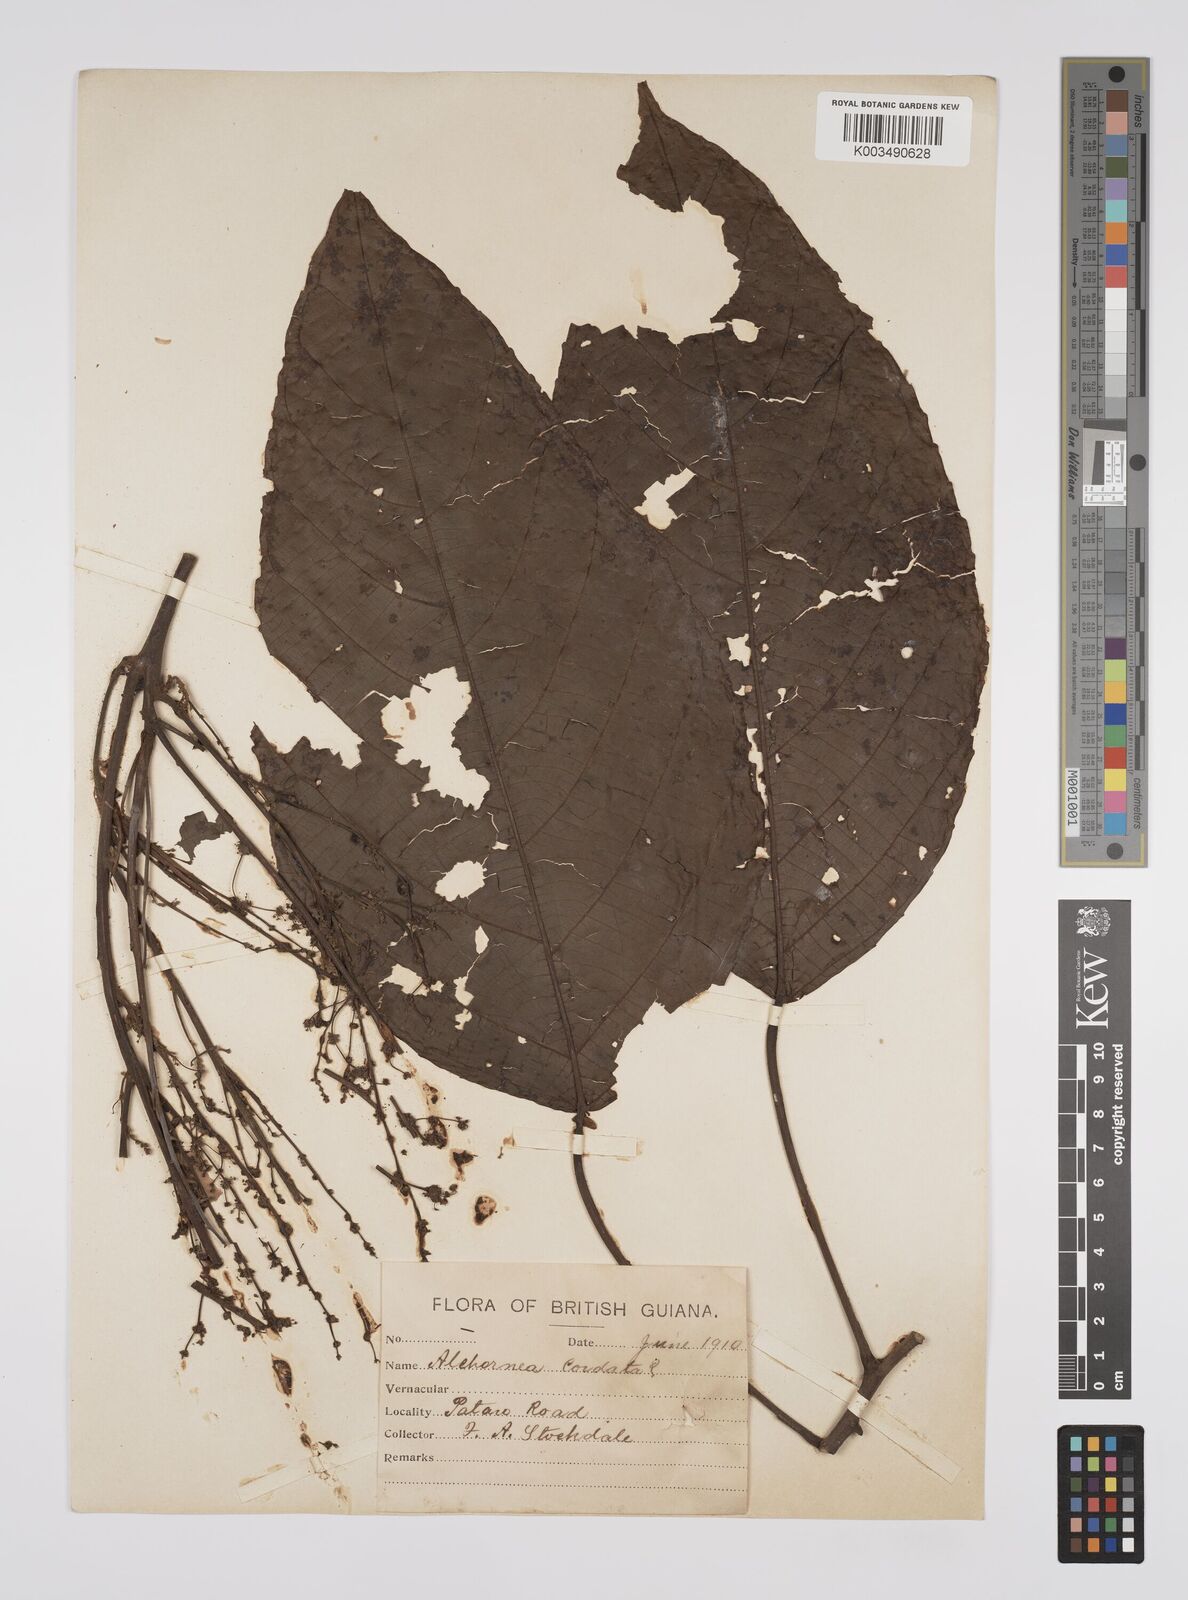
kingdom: Plantae
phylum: Tracheophyta
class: Magnoliopsida
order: Malpighiales
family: Euphorbiaceae
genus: Aparisthmium
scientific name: Aparisthmium cordatum
